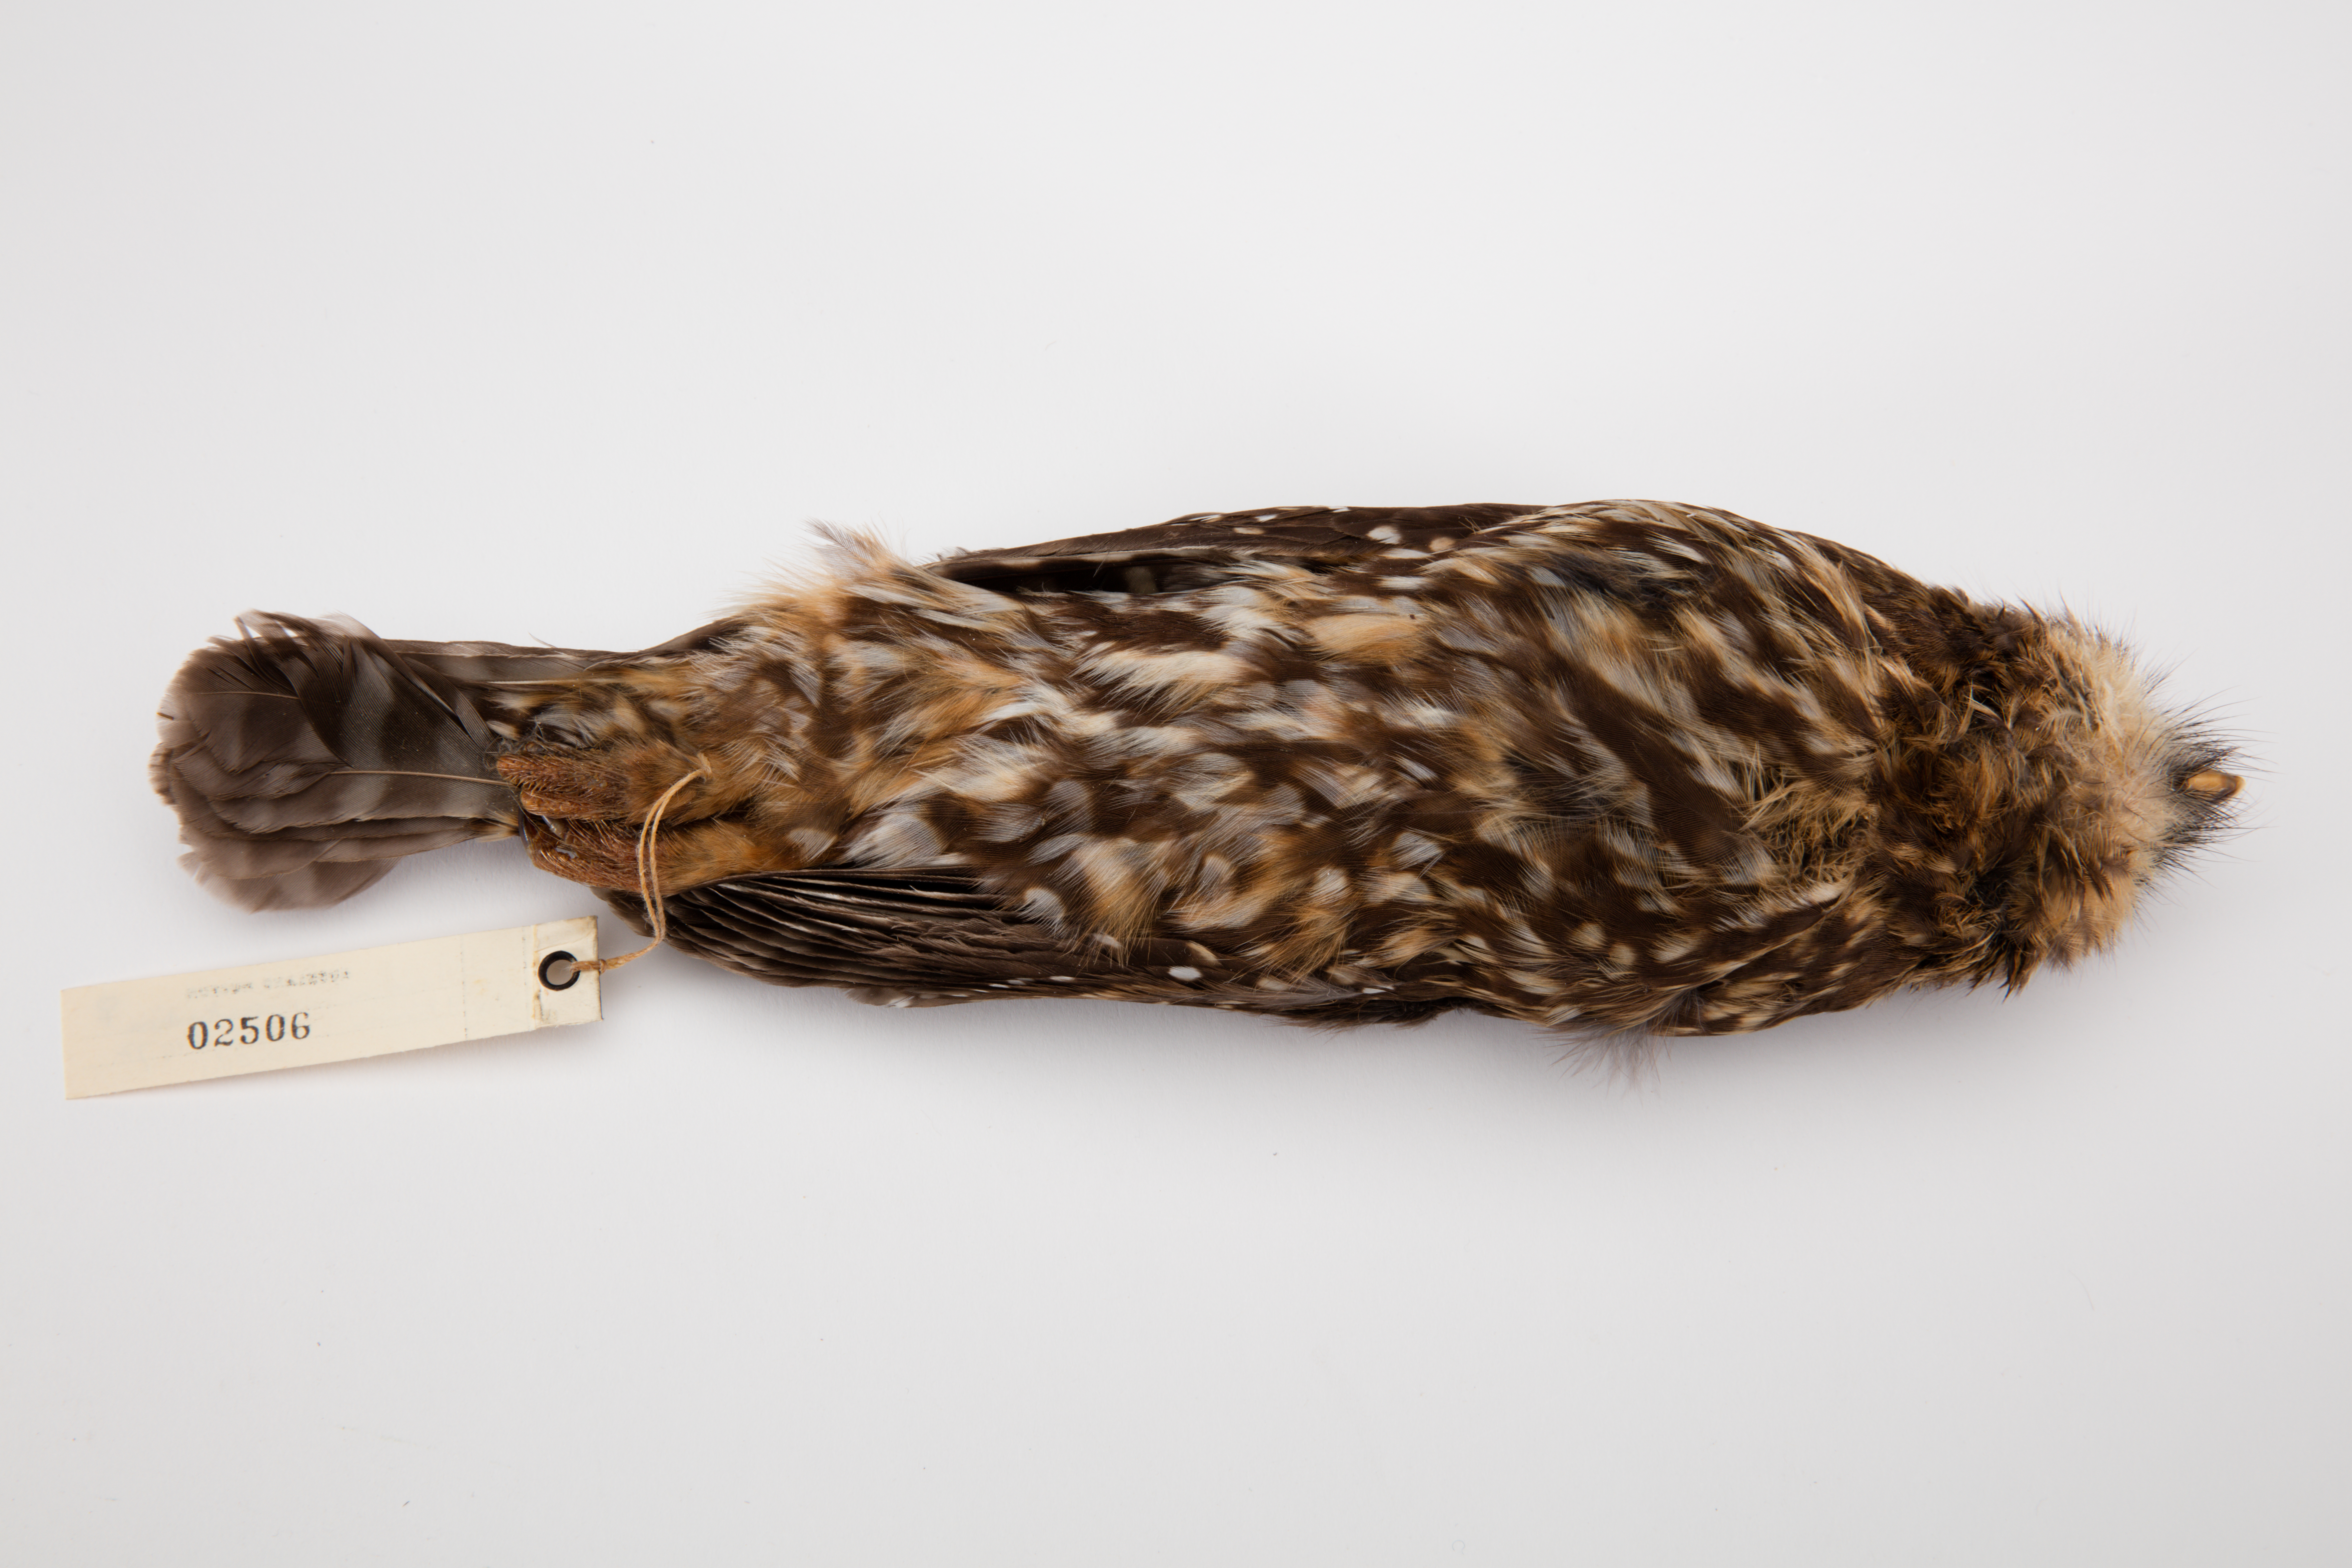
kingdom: Animalia
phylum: Chordata
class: Aves
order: Strigiformes
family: Strigidae
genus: Ninox
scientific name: Ninox novaeseelandiae
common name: Morepork
